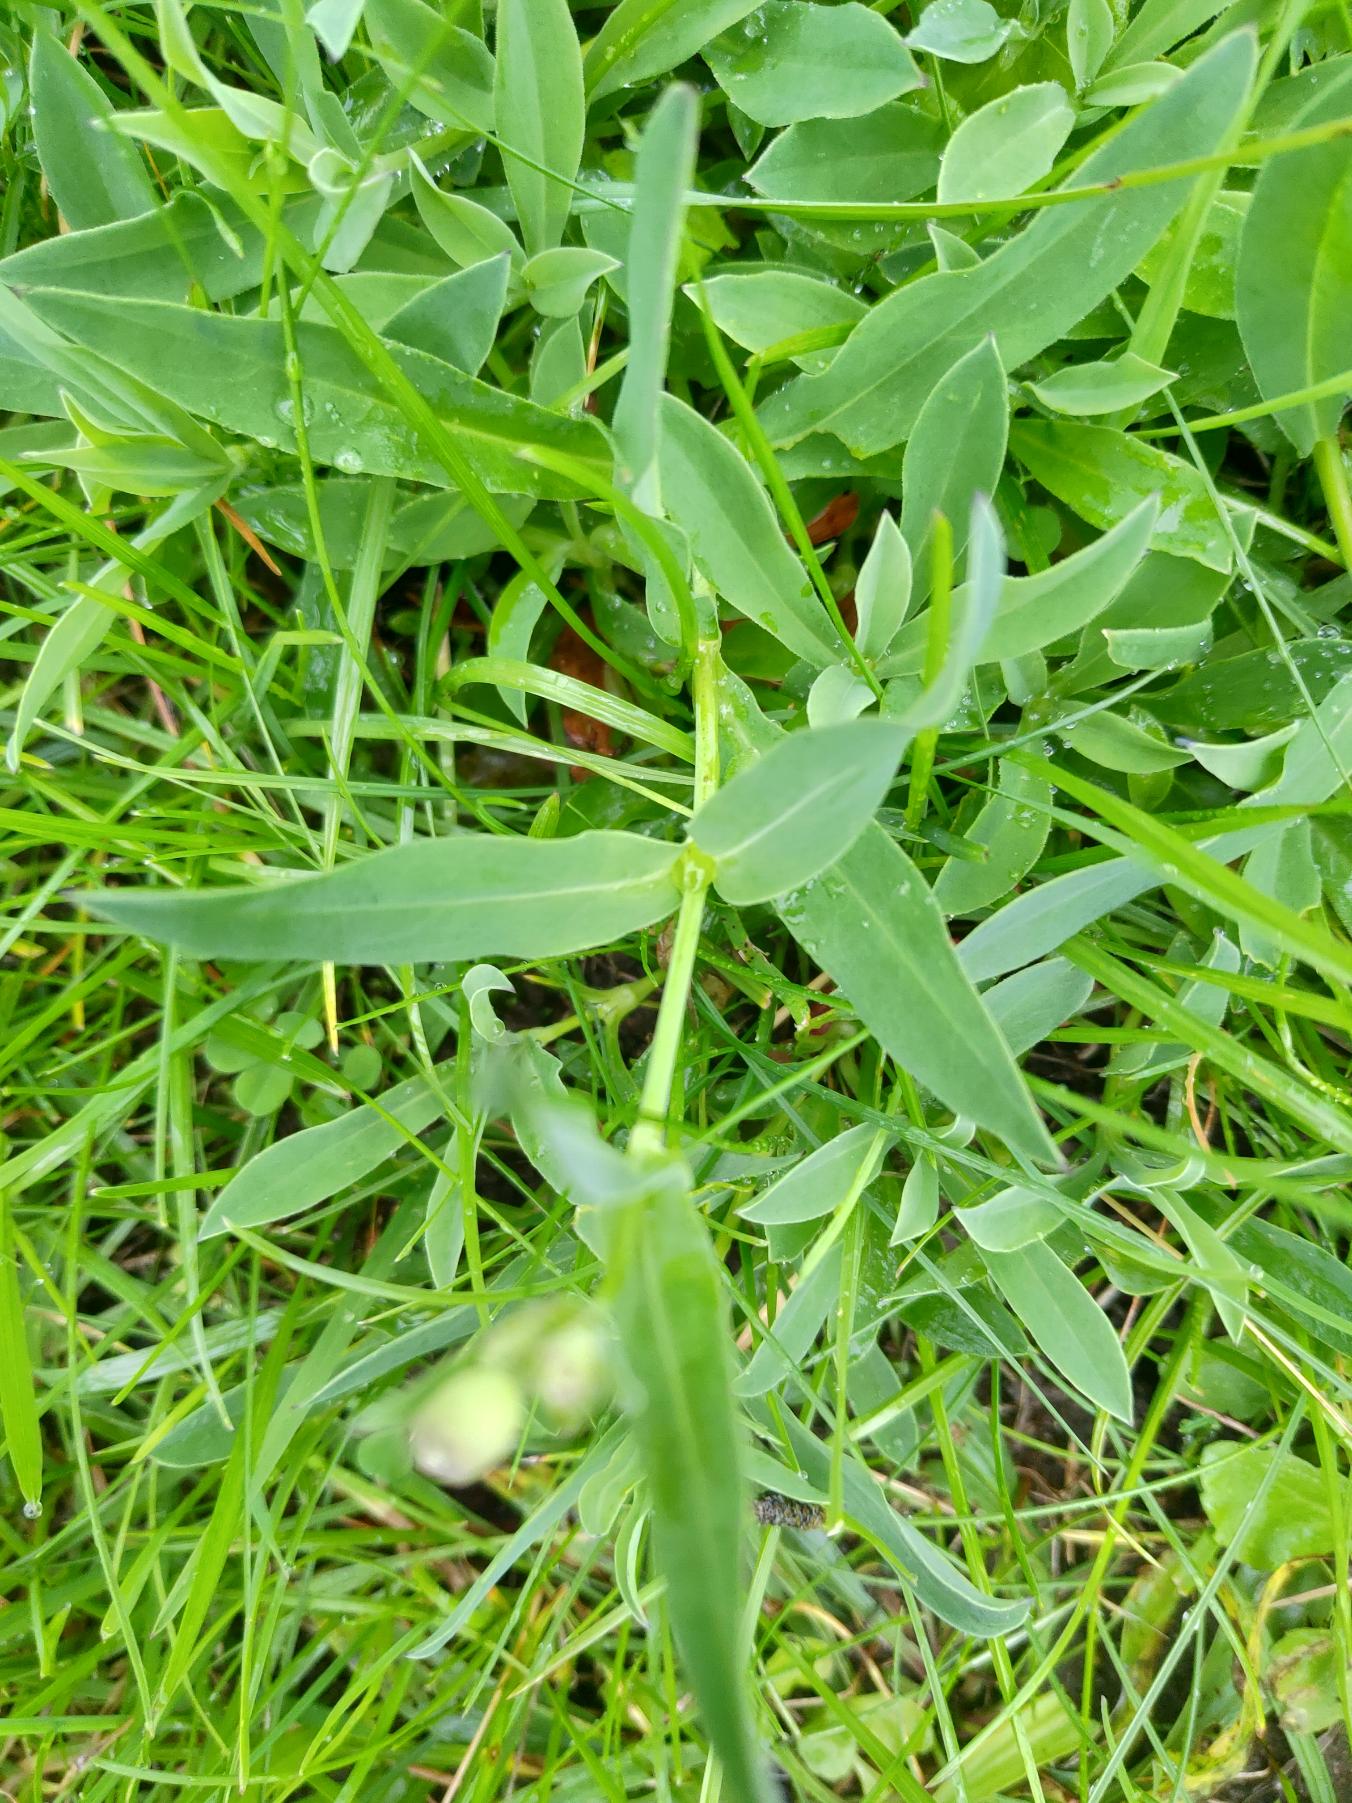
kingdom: Plantae
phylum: Tracheophyta
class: Magnoliopsida
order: Caryophyllales
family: Caryophyllaceae
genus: Silene
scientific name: Silene vulgaris
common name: Blæresmælde
